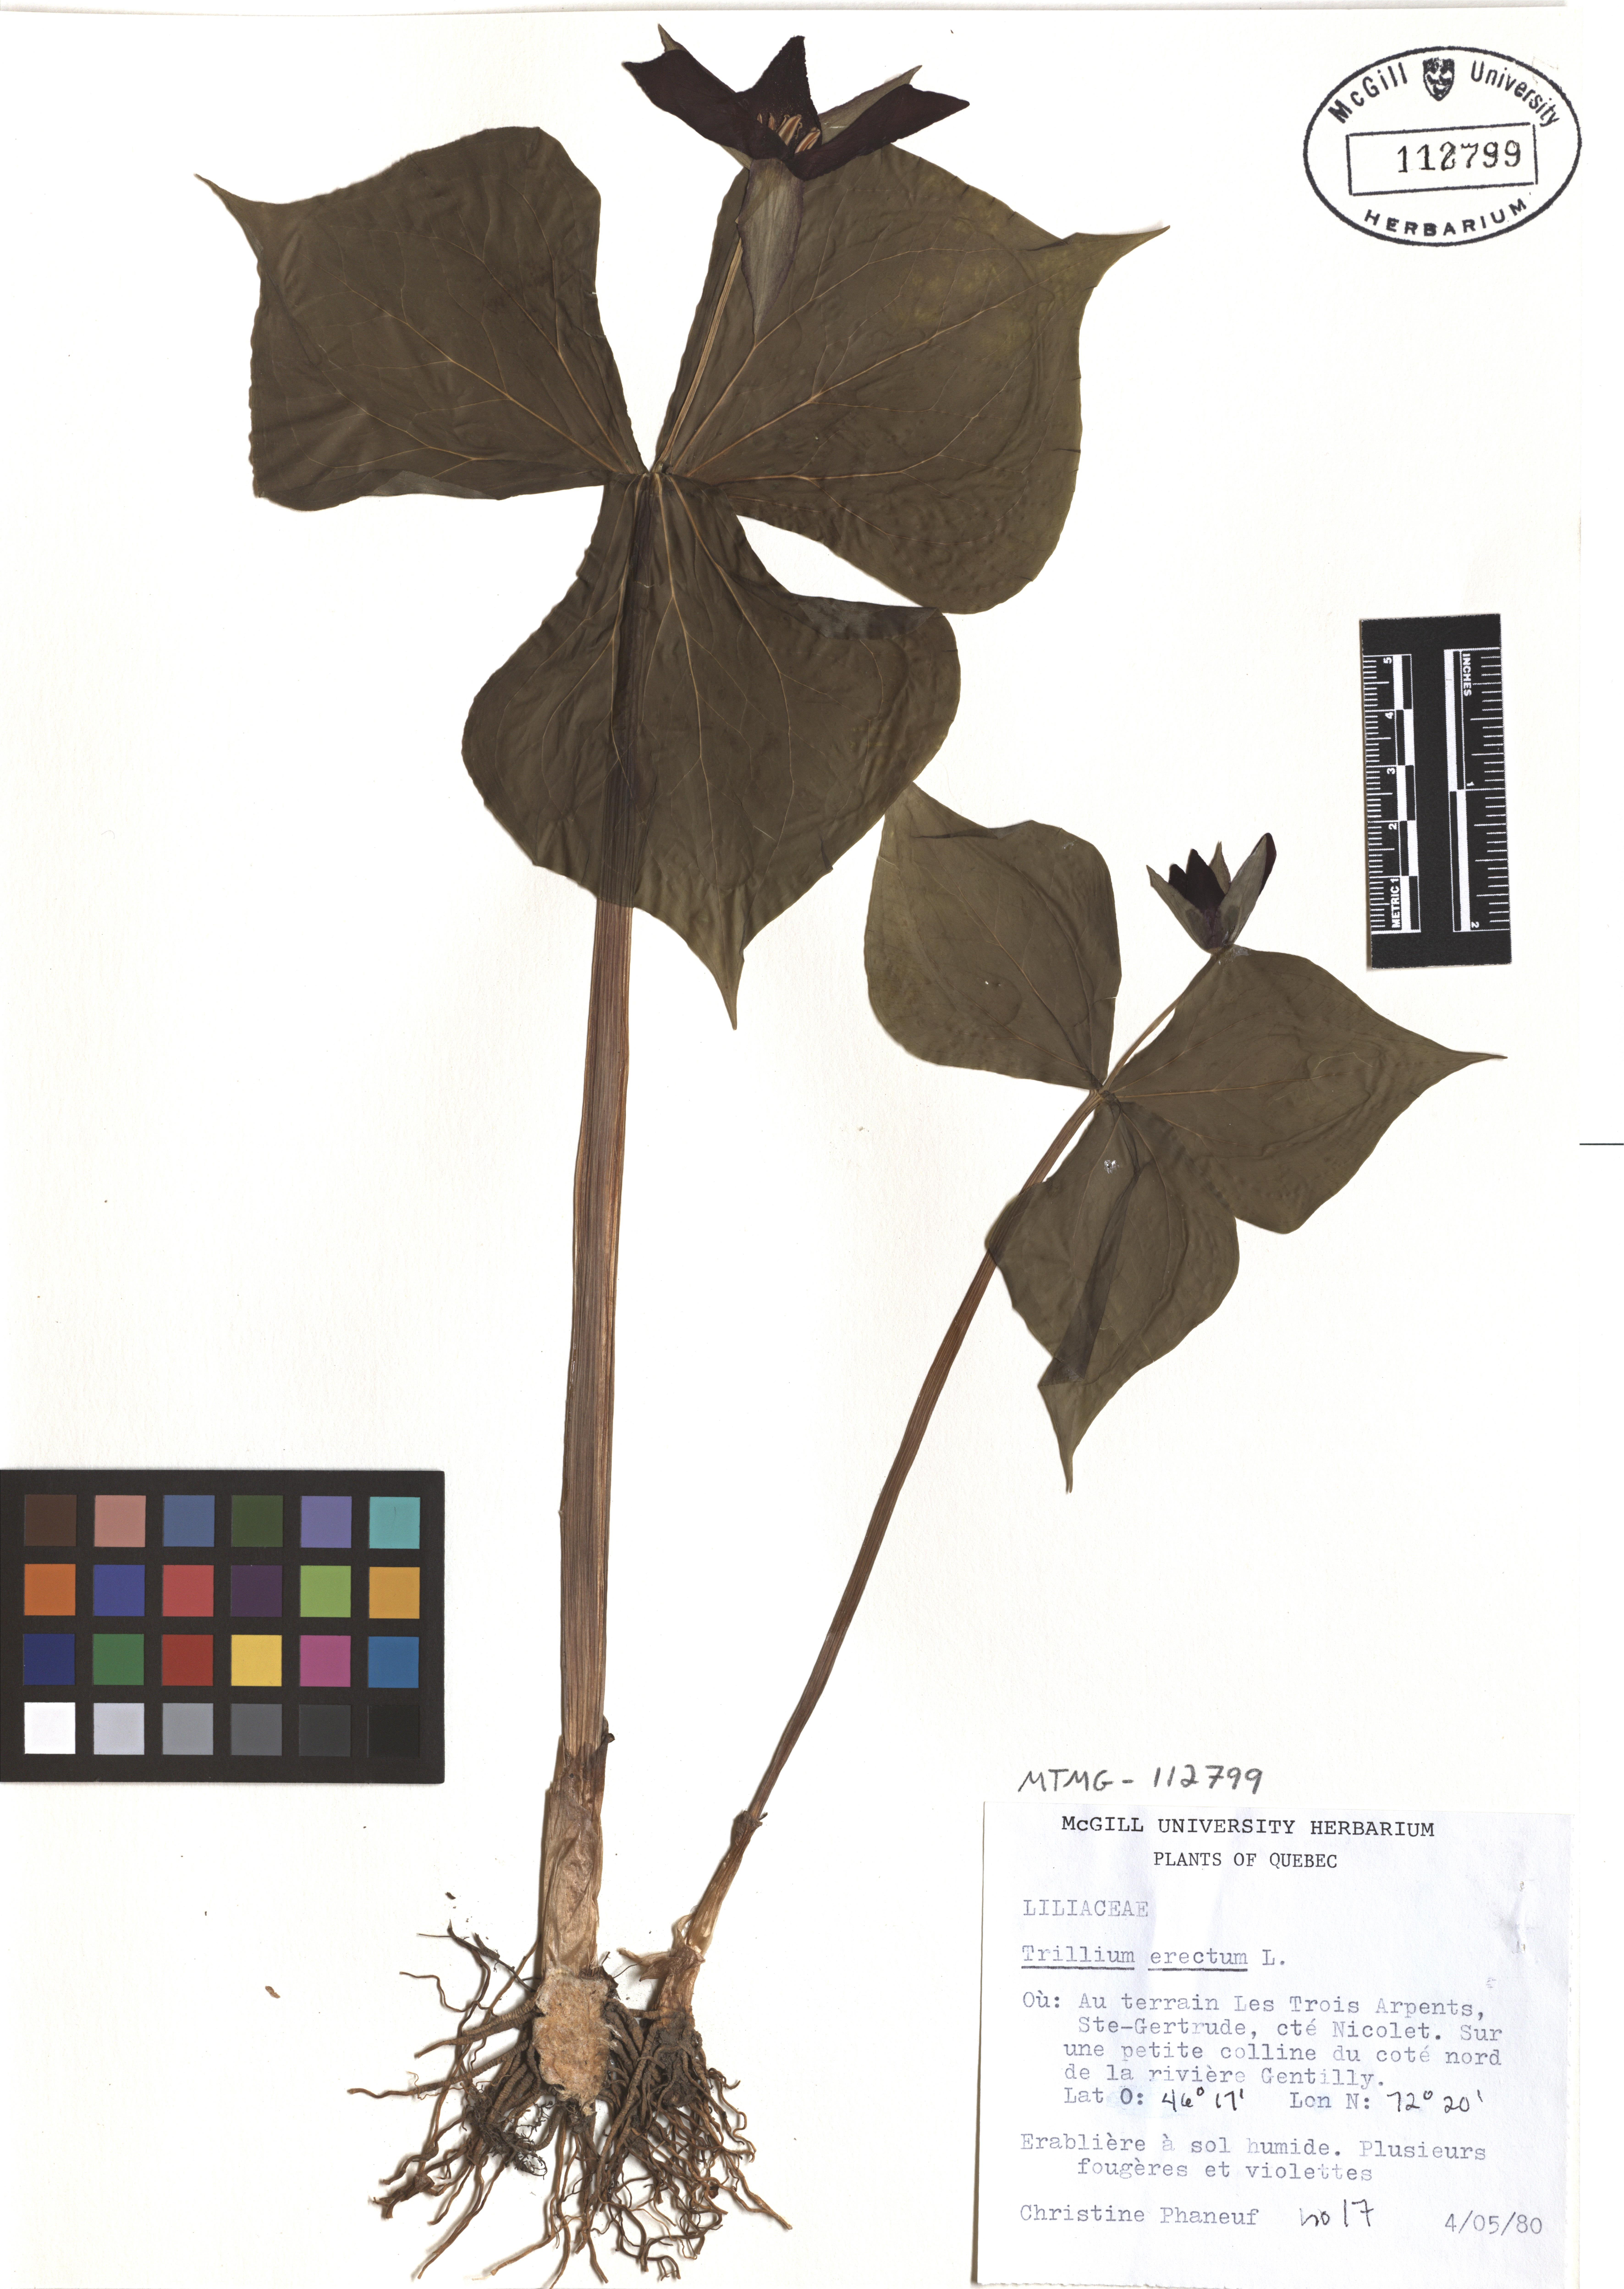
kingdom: Plantae
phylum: Tracheophyta
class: Liliopsida
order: Liliales
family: Melanthiaceae
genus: Trillium
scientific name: Trillium erectum
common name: Purple trillium
